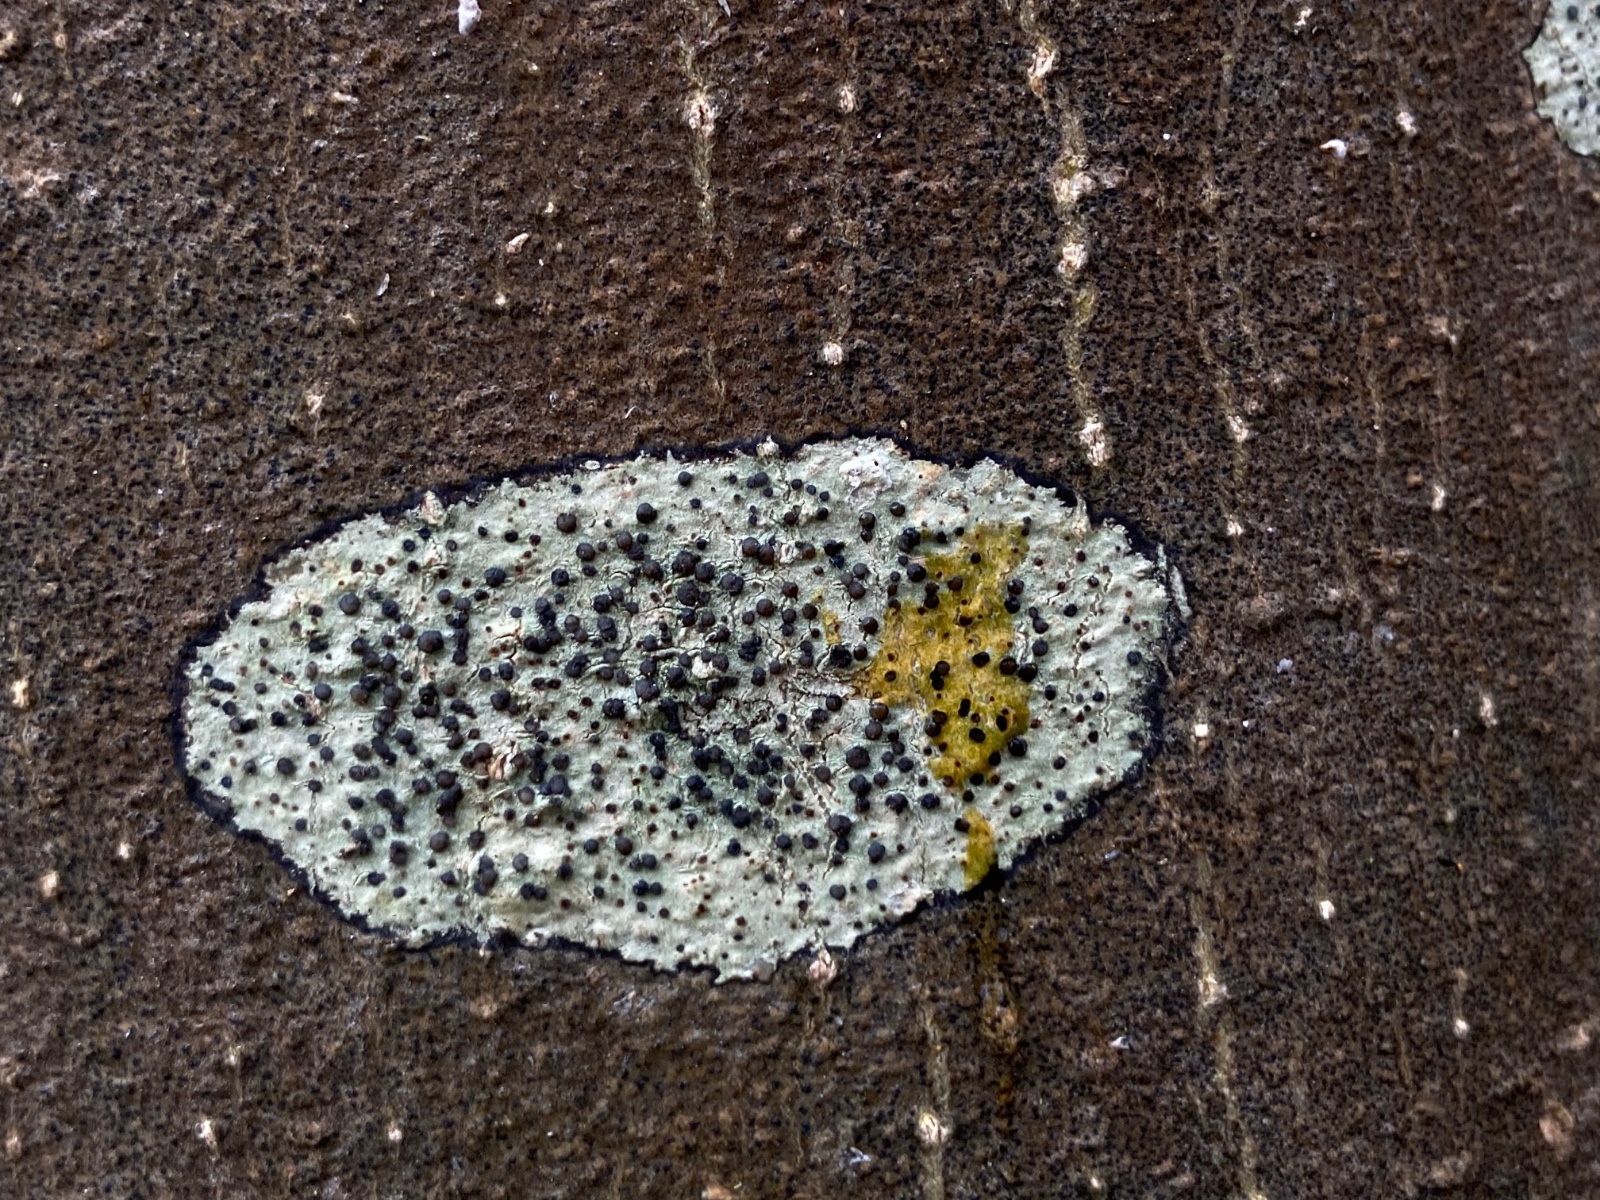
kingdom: Fungi
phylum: Ascomycota
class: Lecanoromycetes
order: Lecanorales
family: Lecanoraceae
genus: Lecidella
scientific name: Lecidella elaeochroma
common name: grågrøn skivelav
